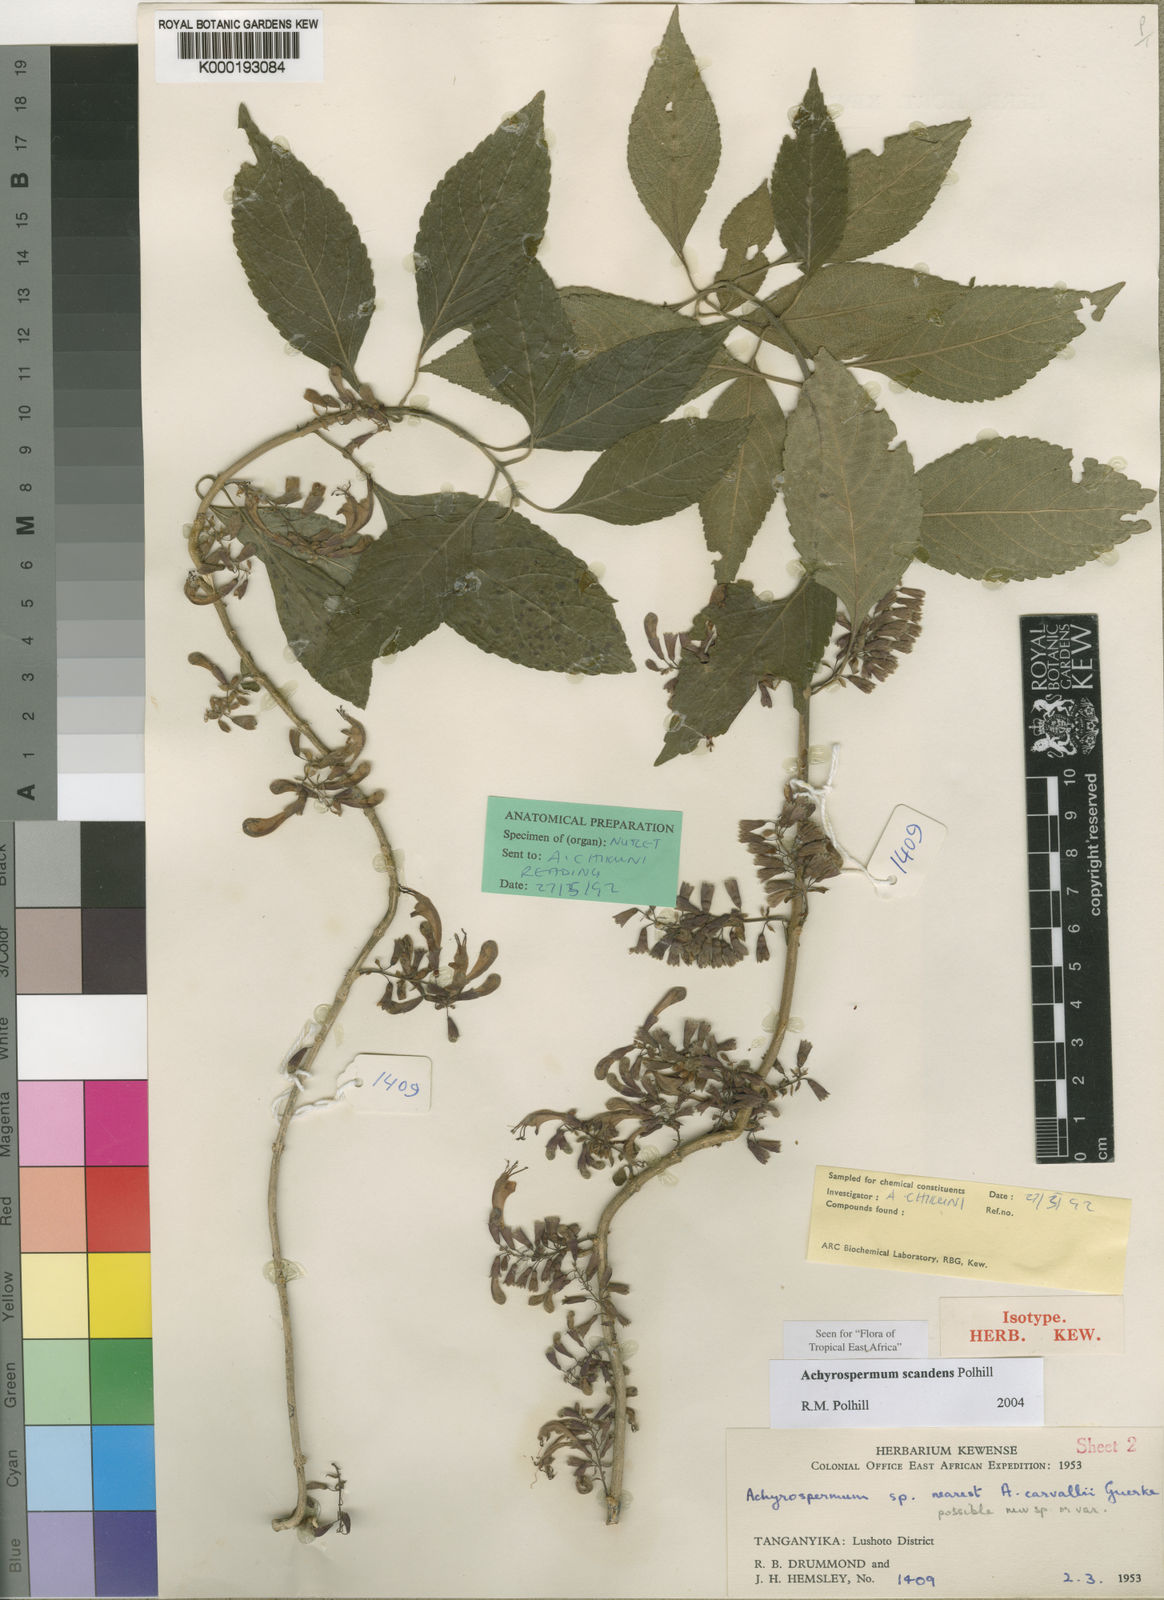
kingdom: Plantae
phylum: Tracheophyta
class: Magnoliopsida
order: Lamiales
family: Lamiaceae
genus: Achyrospermum
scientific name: Achyrospermum scandens
